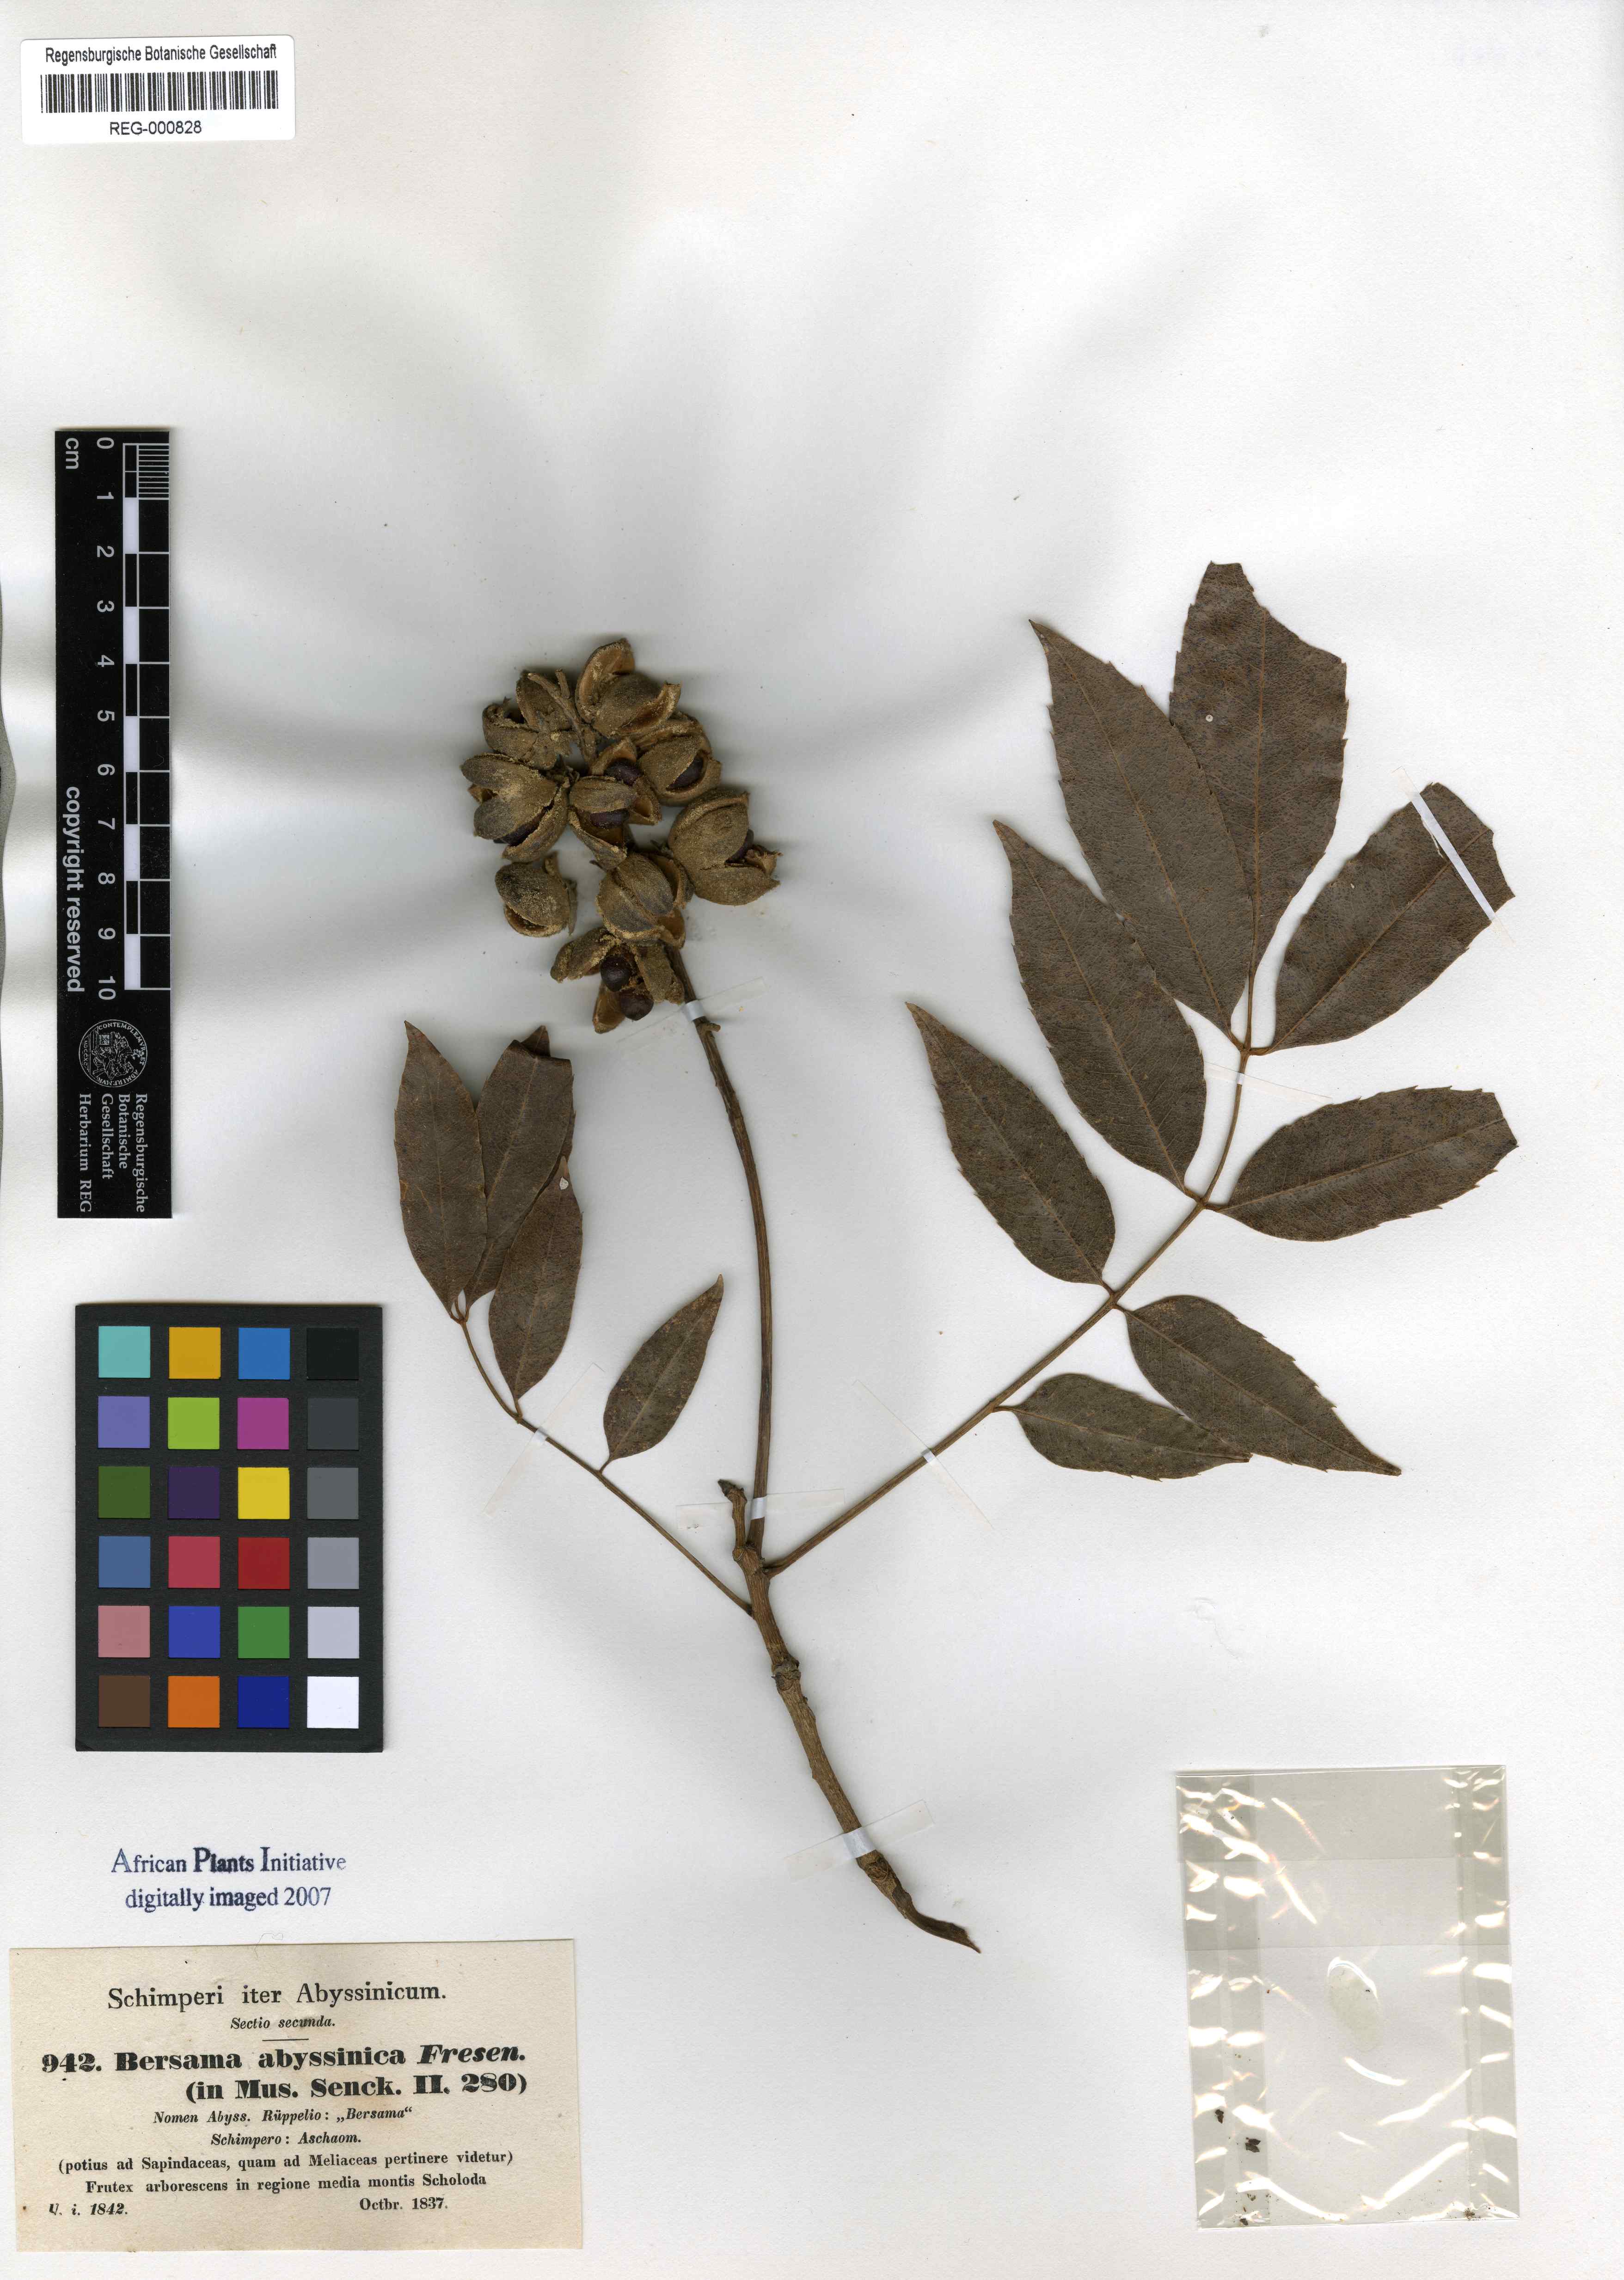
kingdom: Plantae
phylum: Tracheophyta
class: Magnoliopsida
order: Geraniales
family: Melianthaceae
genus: Bersama
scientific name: Bersama abyssinica
